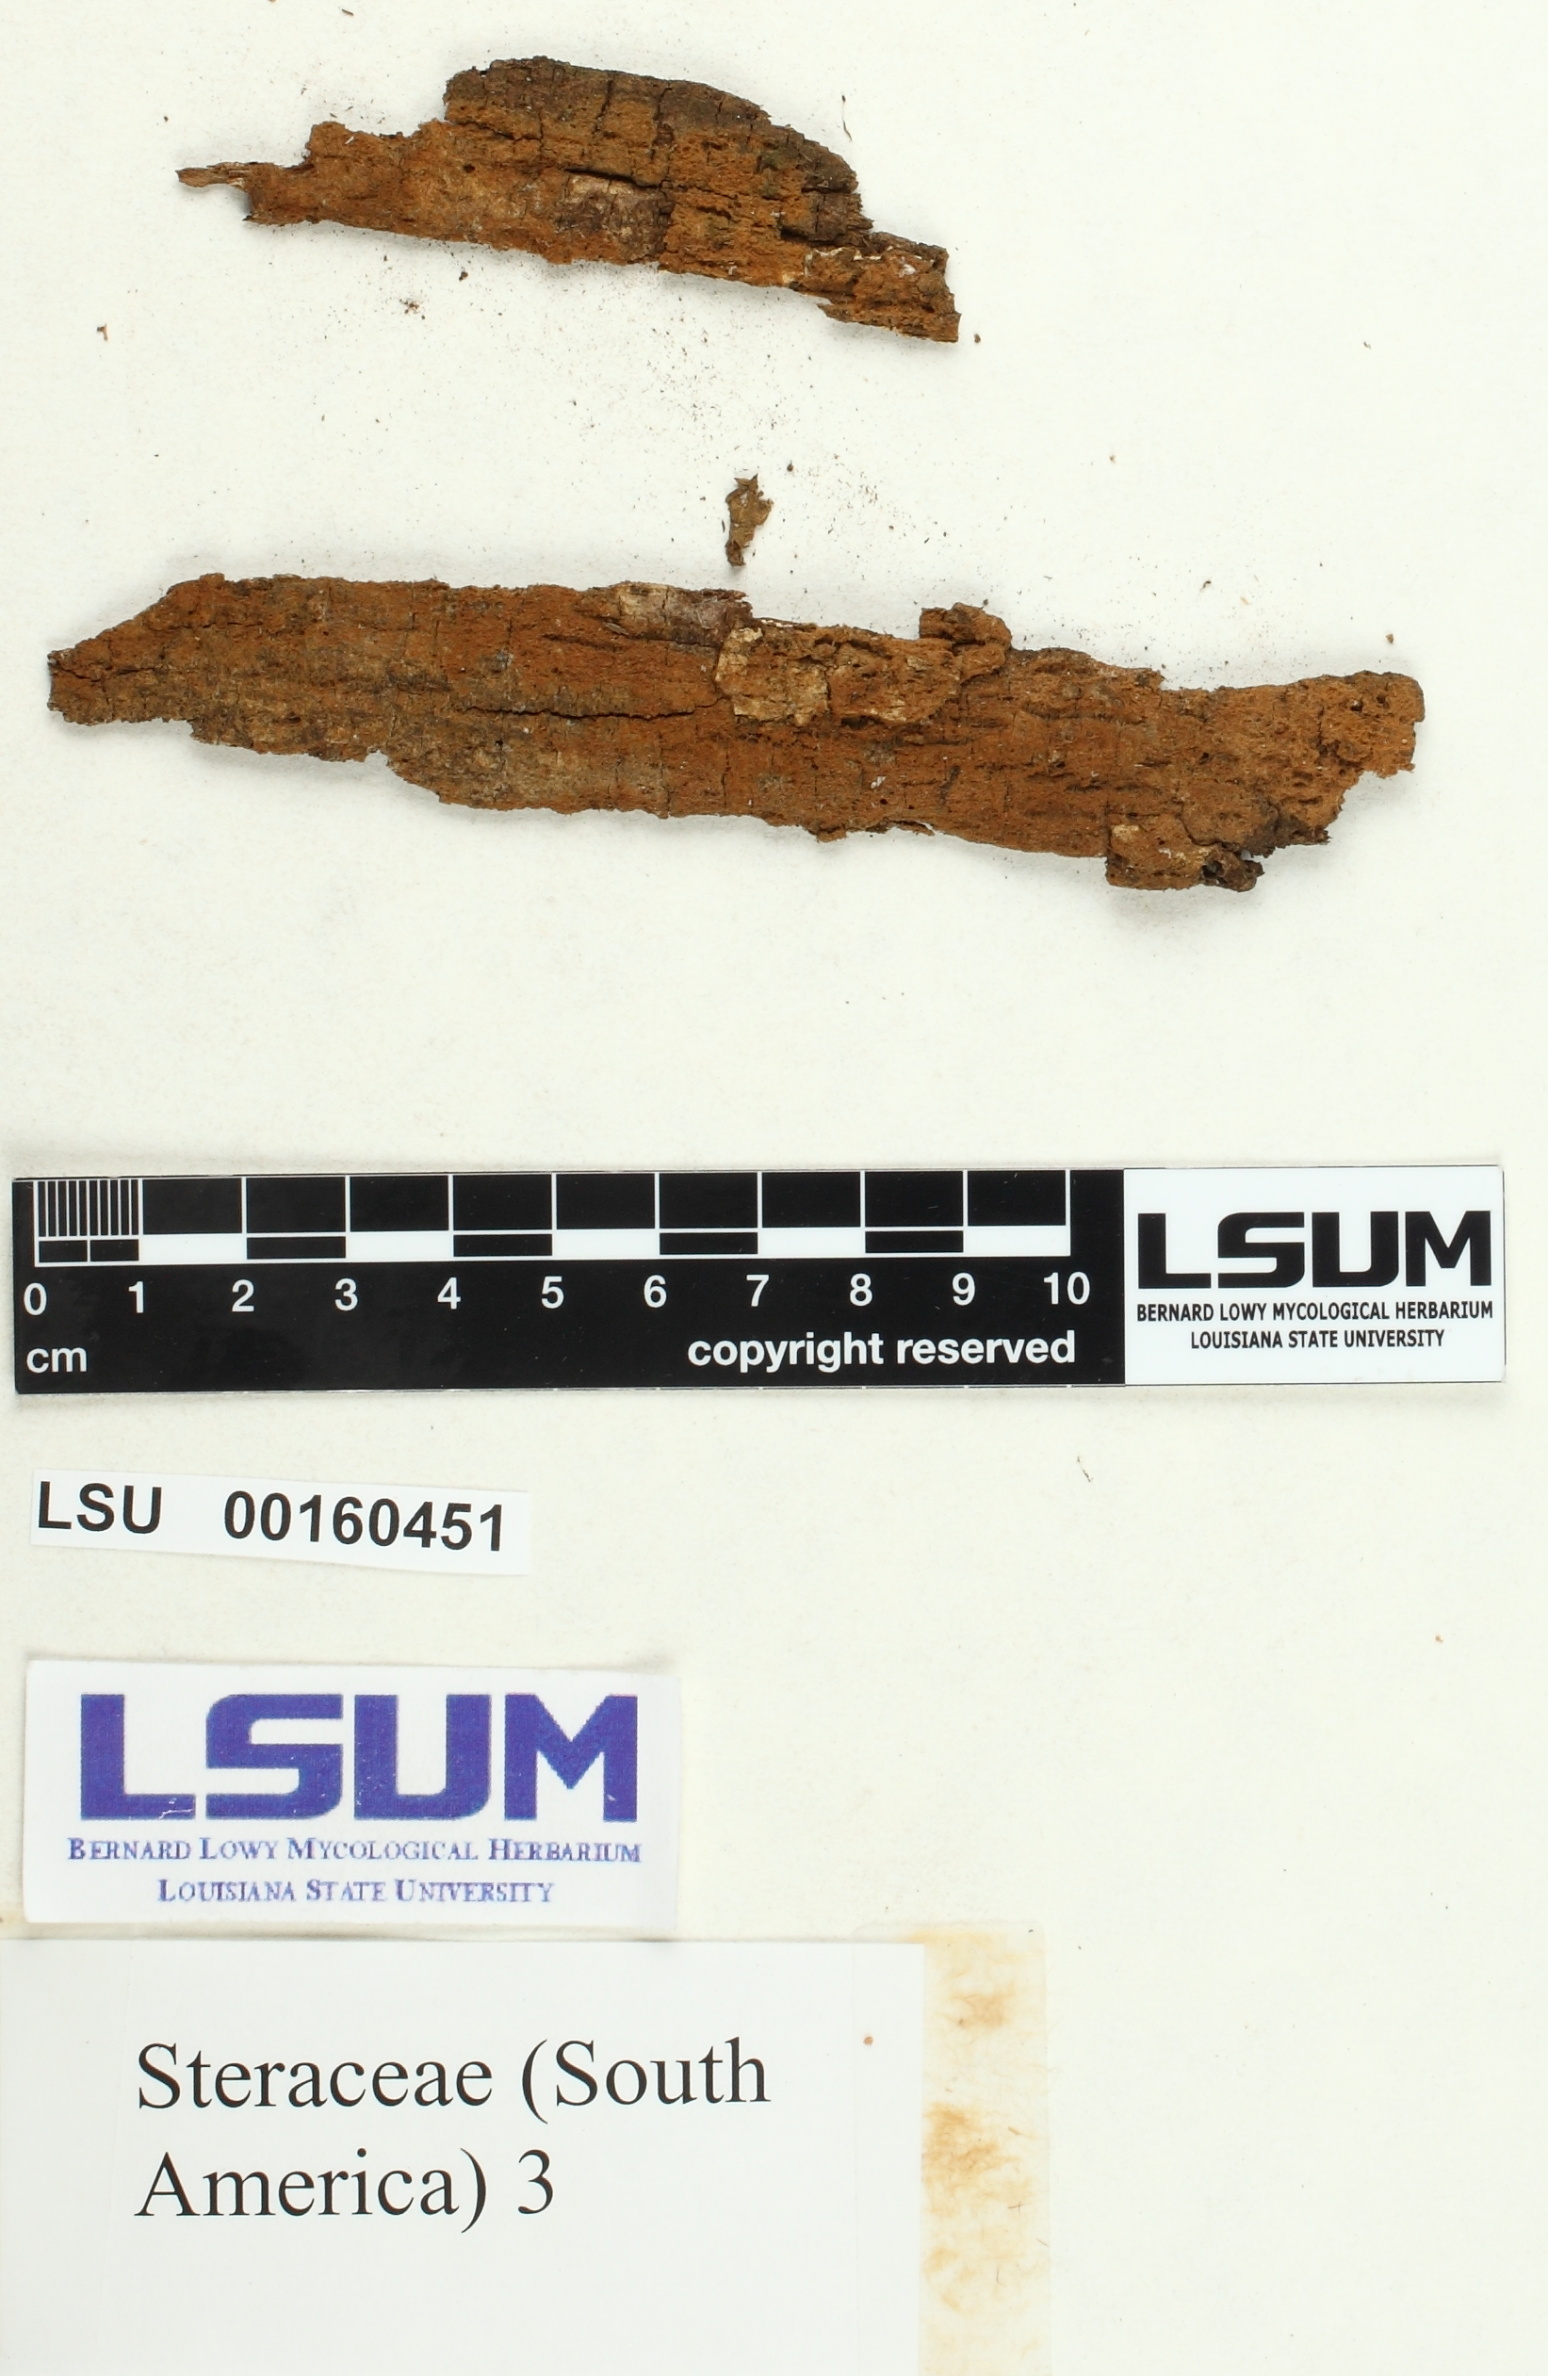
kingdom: Fungi
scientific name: Fungi
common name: Fungi
